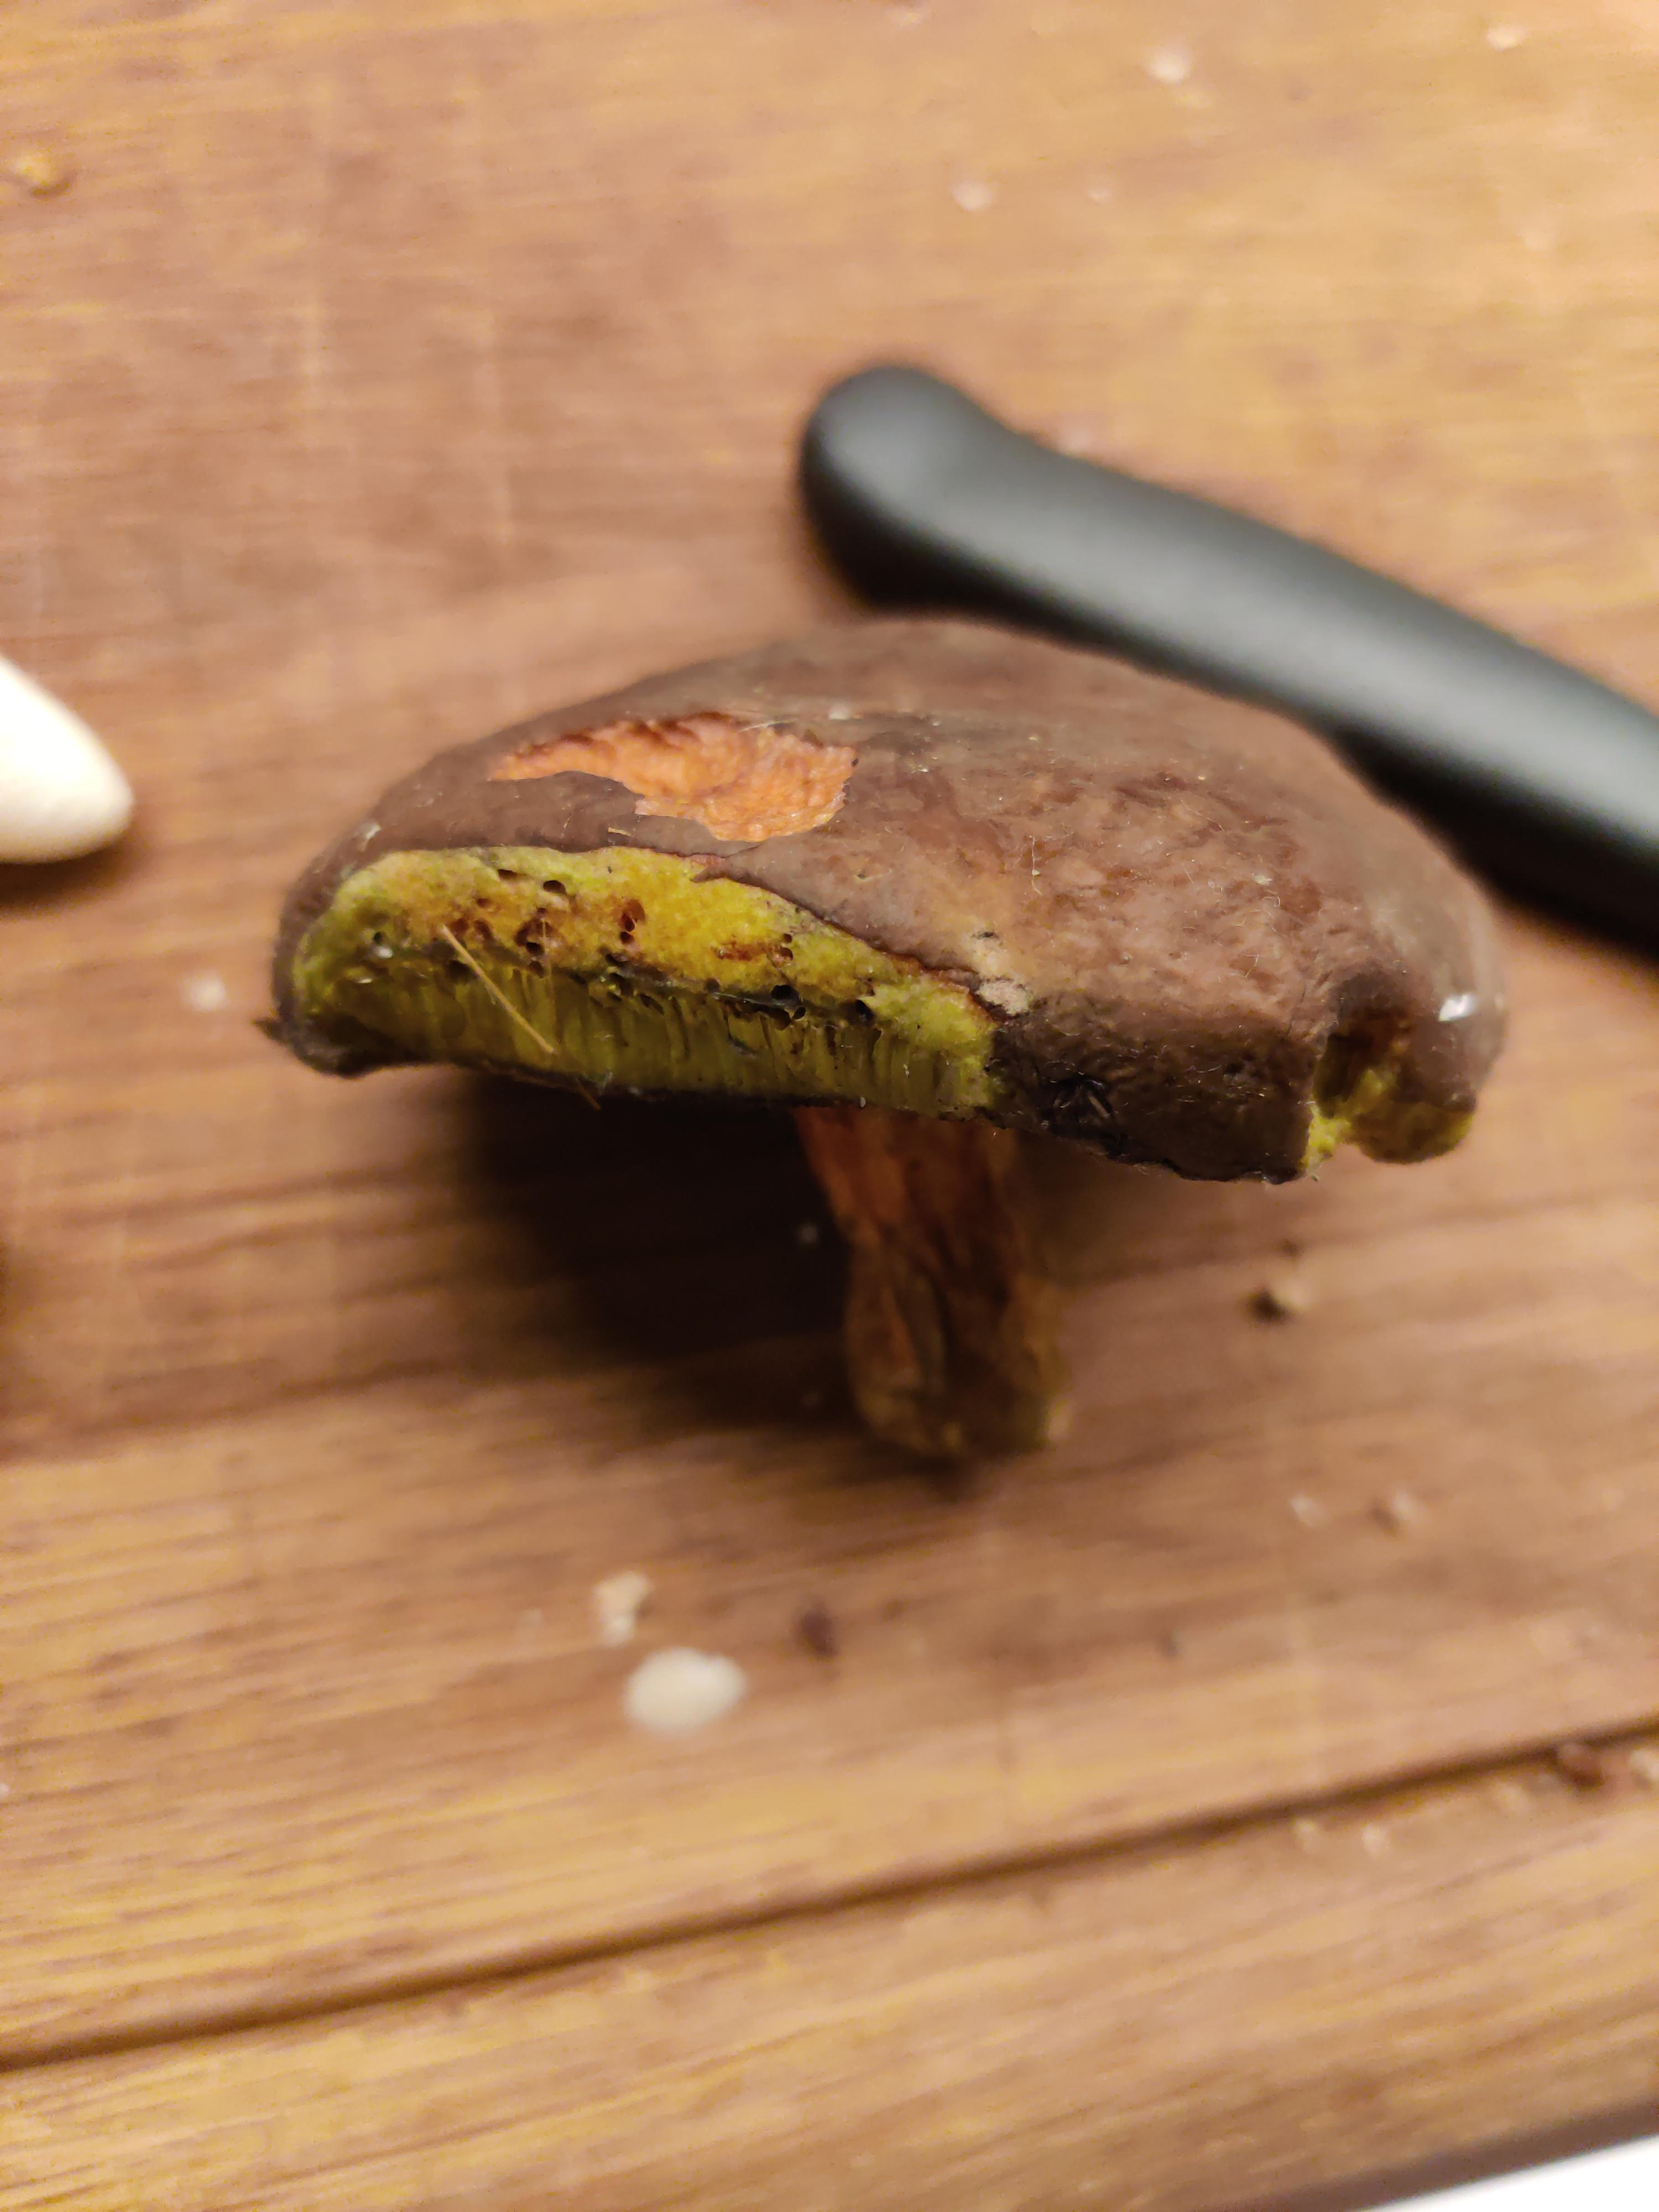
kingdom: Fungi
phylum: Basidiomycota
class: Agaricomycetes
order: Boletales
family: Boletaceae
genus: Xerocomellus
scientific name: Xerocomellus pruinatus
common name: dugget rørhat
